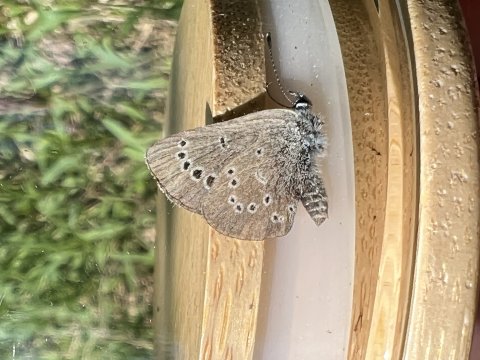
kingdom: Animalia
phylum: Arthropoda
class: Insecta
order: Lepidoptera
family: Lycaenidae
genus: Glaucopsyche
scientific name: Glaucopsyche lygdamus
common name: Silvery Blue
